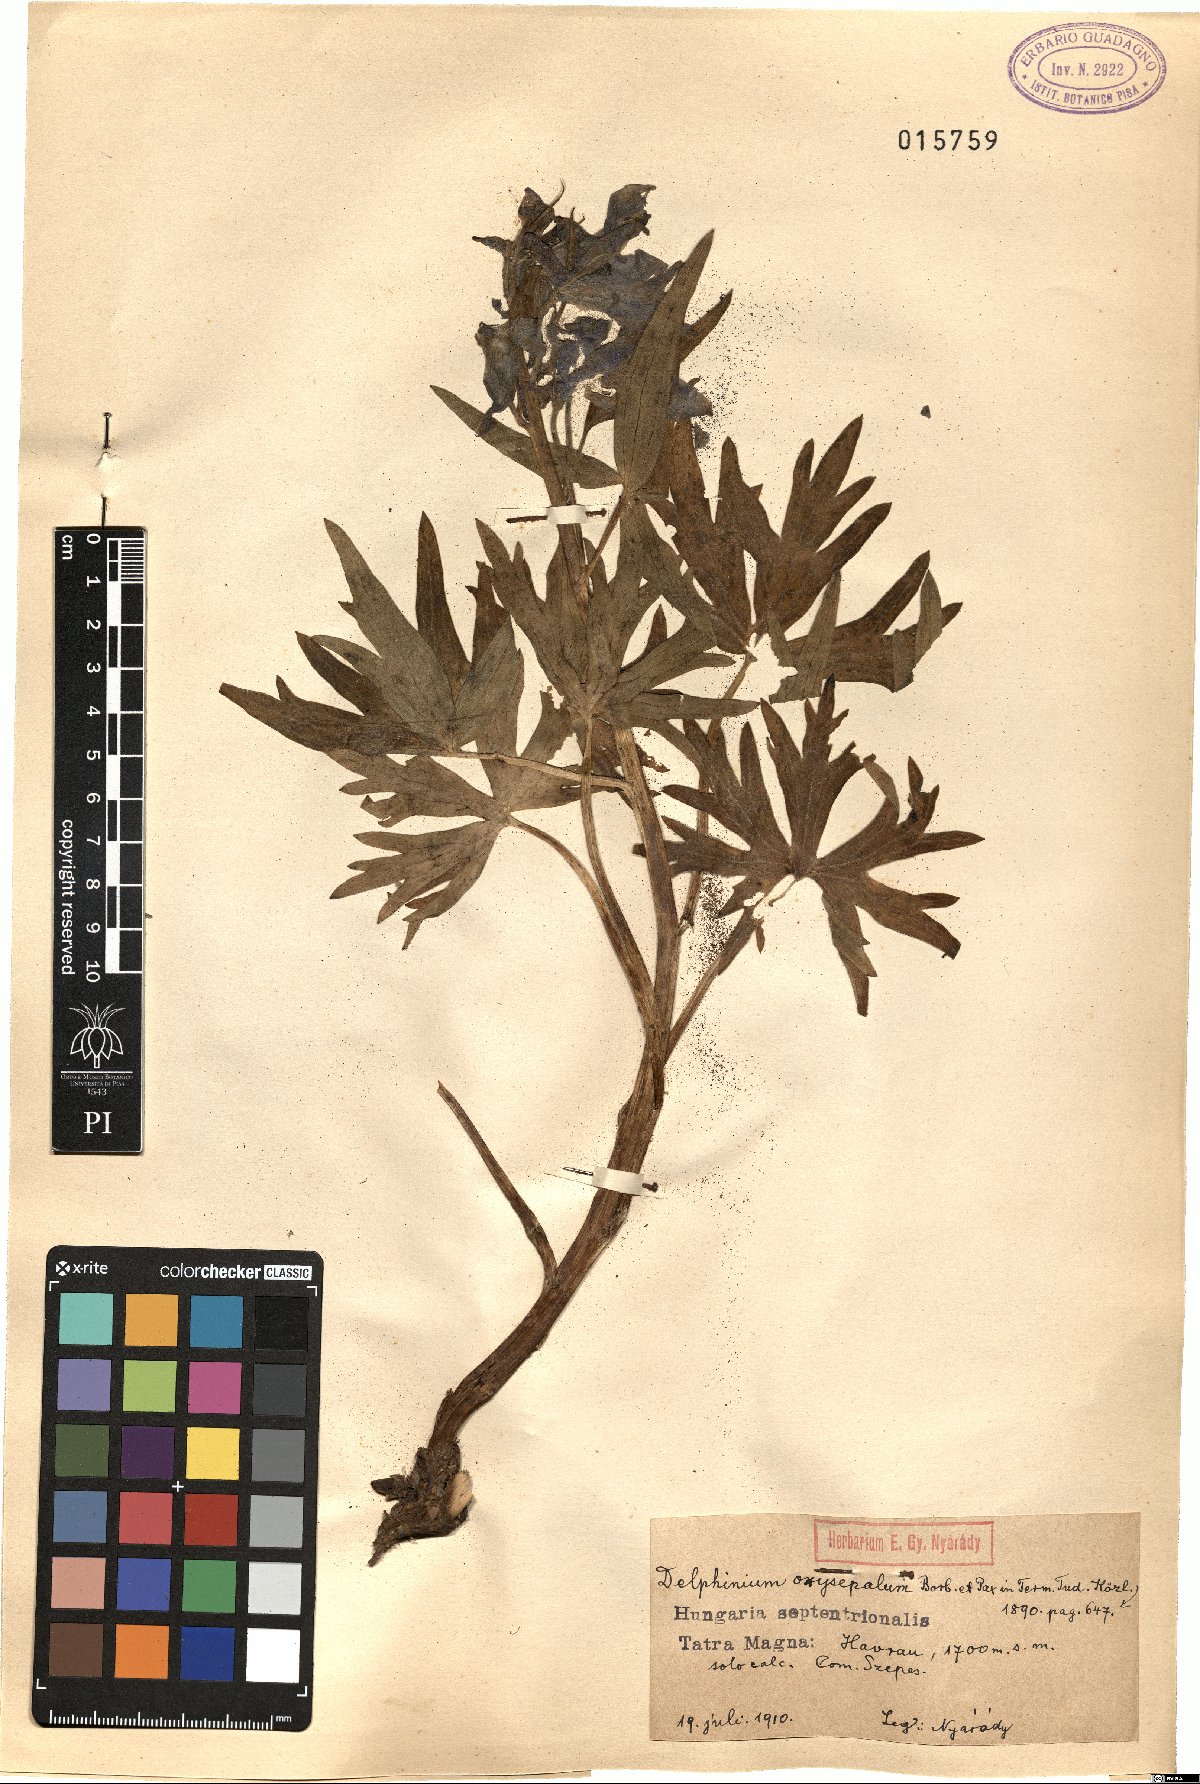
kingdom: Plantae
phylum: Tracheophyta
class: Magnoliopsida
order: Ranunculales
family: Ranunculaceae
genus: Delphinium
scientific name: Delphinium oxysepalum
